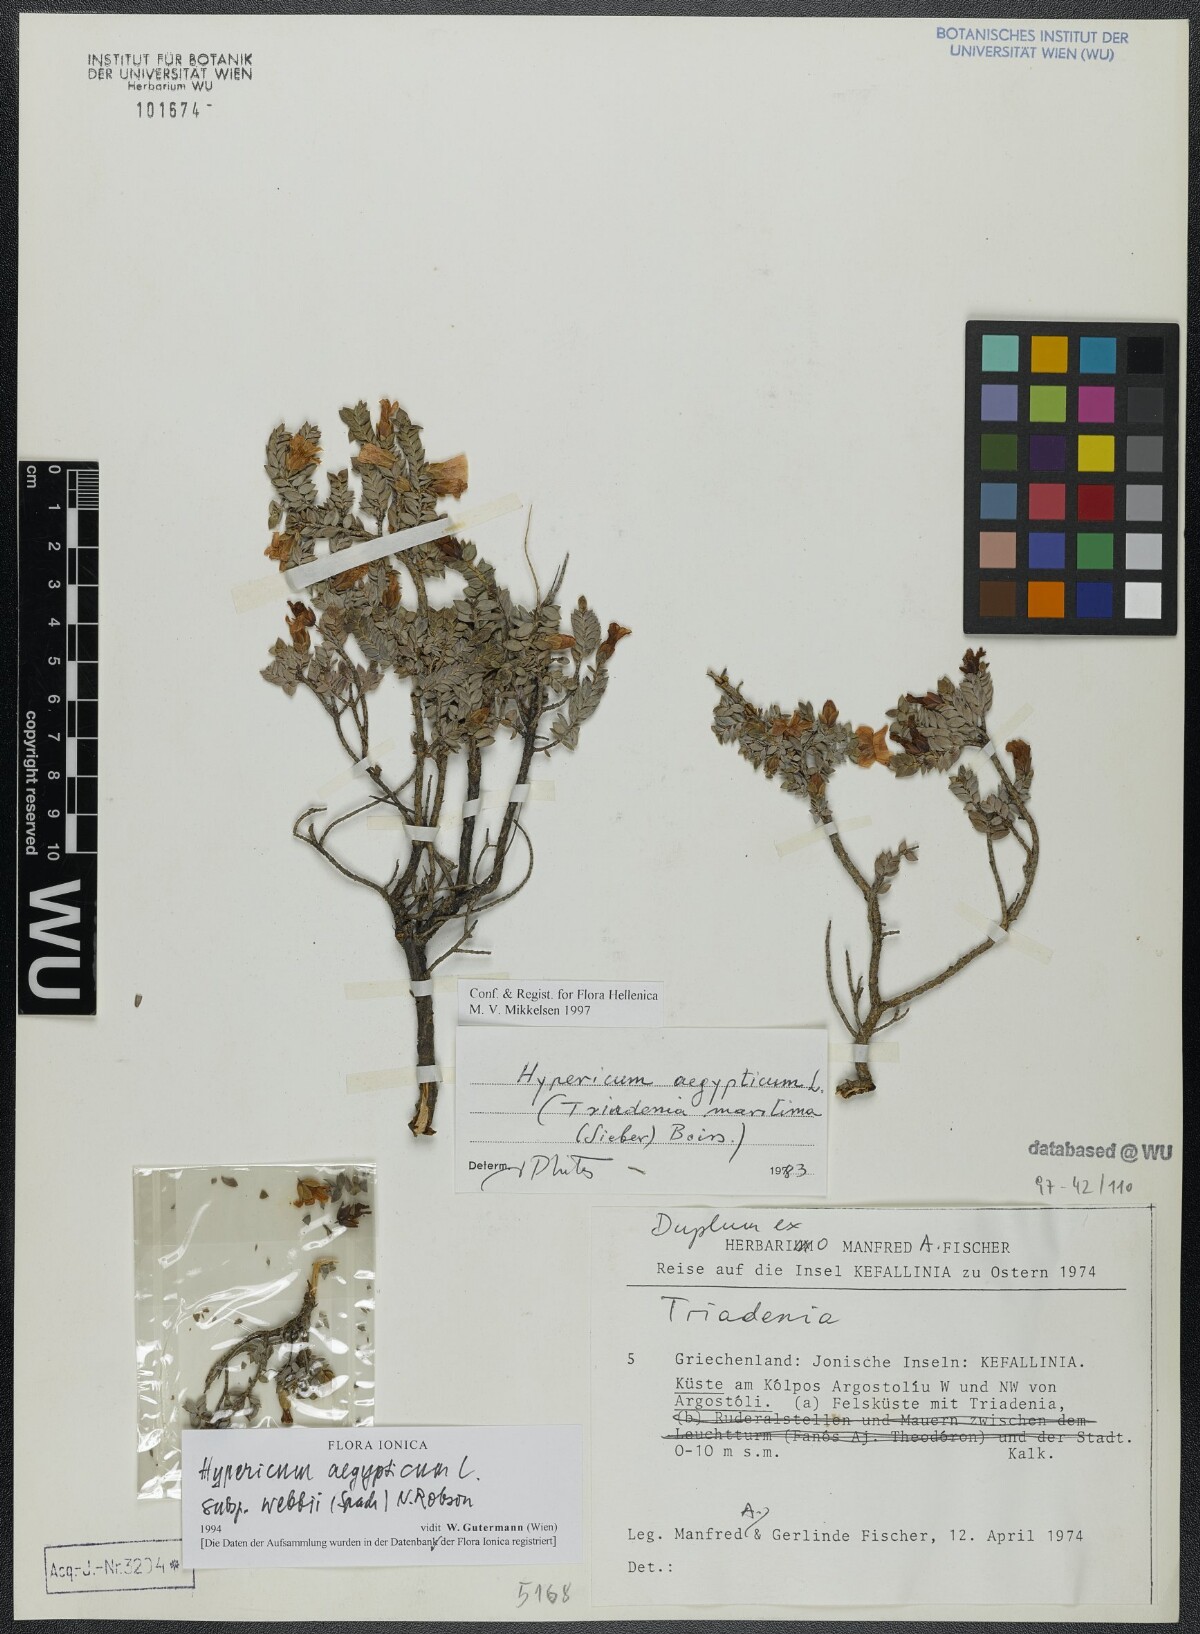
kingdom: Plantae
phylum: Tracheophyta
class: Magnoliopsida
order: Malpighiales
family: Hypericaceae
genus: Hypericum
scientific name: Hypericum aegypticum
